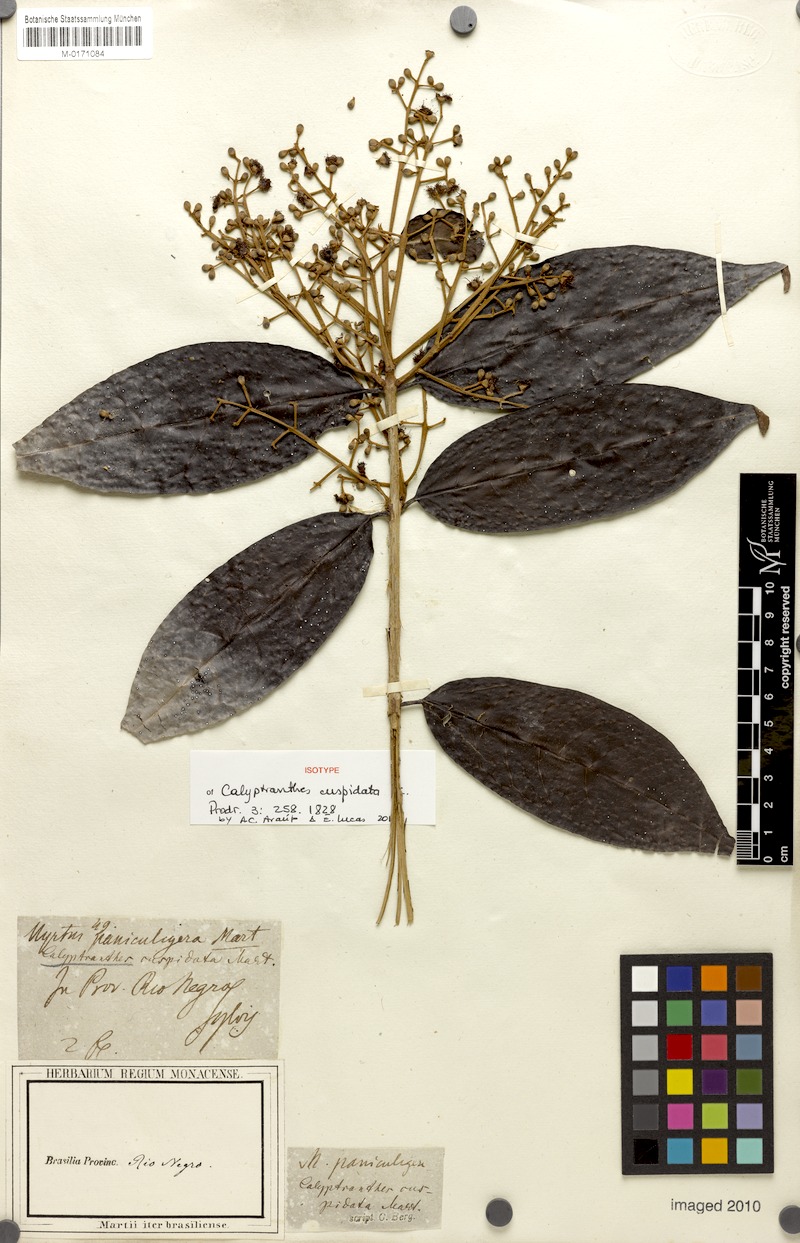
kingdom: Plantae
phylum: Tracheophyta
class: Magnoliopsida
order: Myrtales
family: Myrtaceae
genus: Myrcia
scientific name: Myrcia cuspidata
